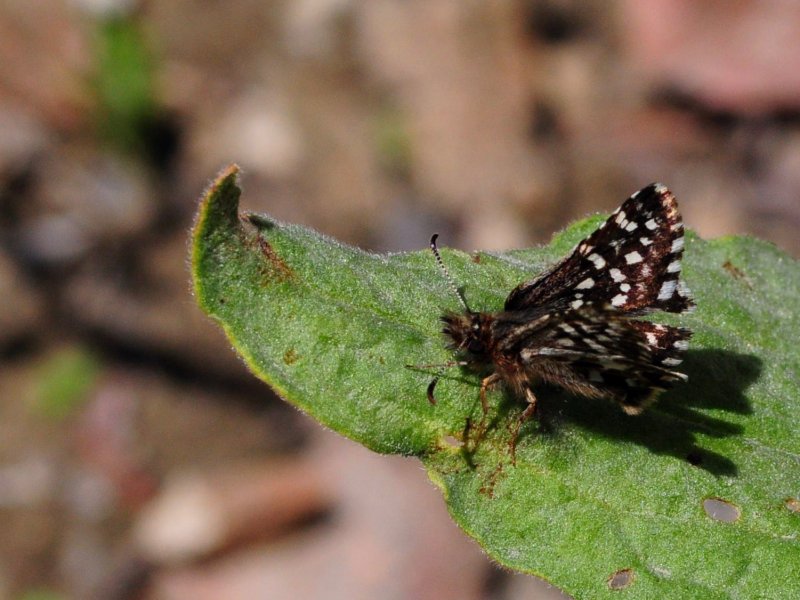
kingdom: Animalia
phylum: Arthropoda
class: Insecta
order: Lepidoptera
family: Hesperiidae
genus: Pyrgus
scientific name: Pyrgus centaureae
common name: Grizzled Skipper
